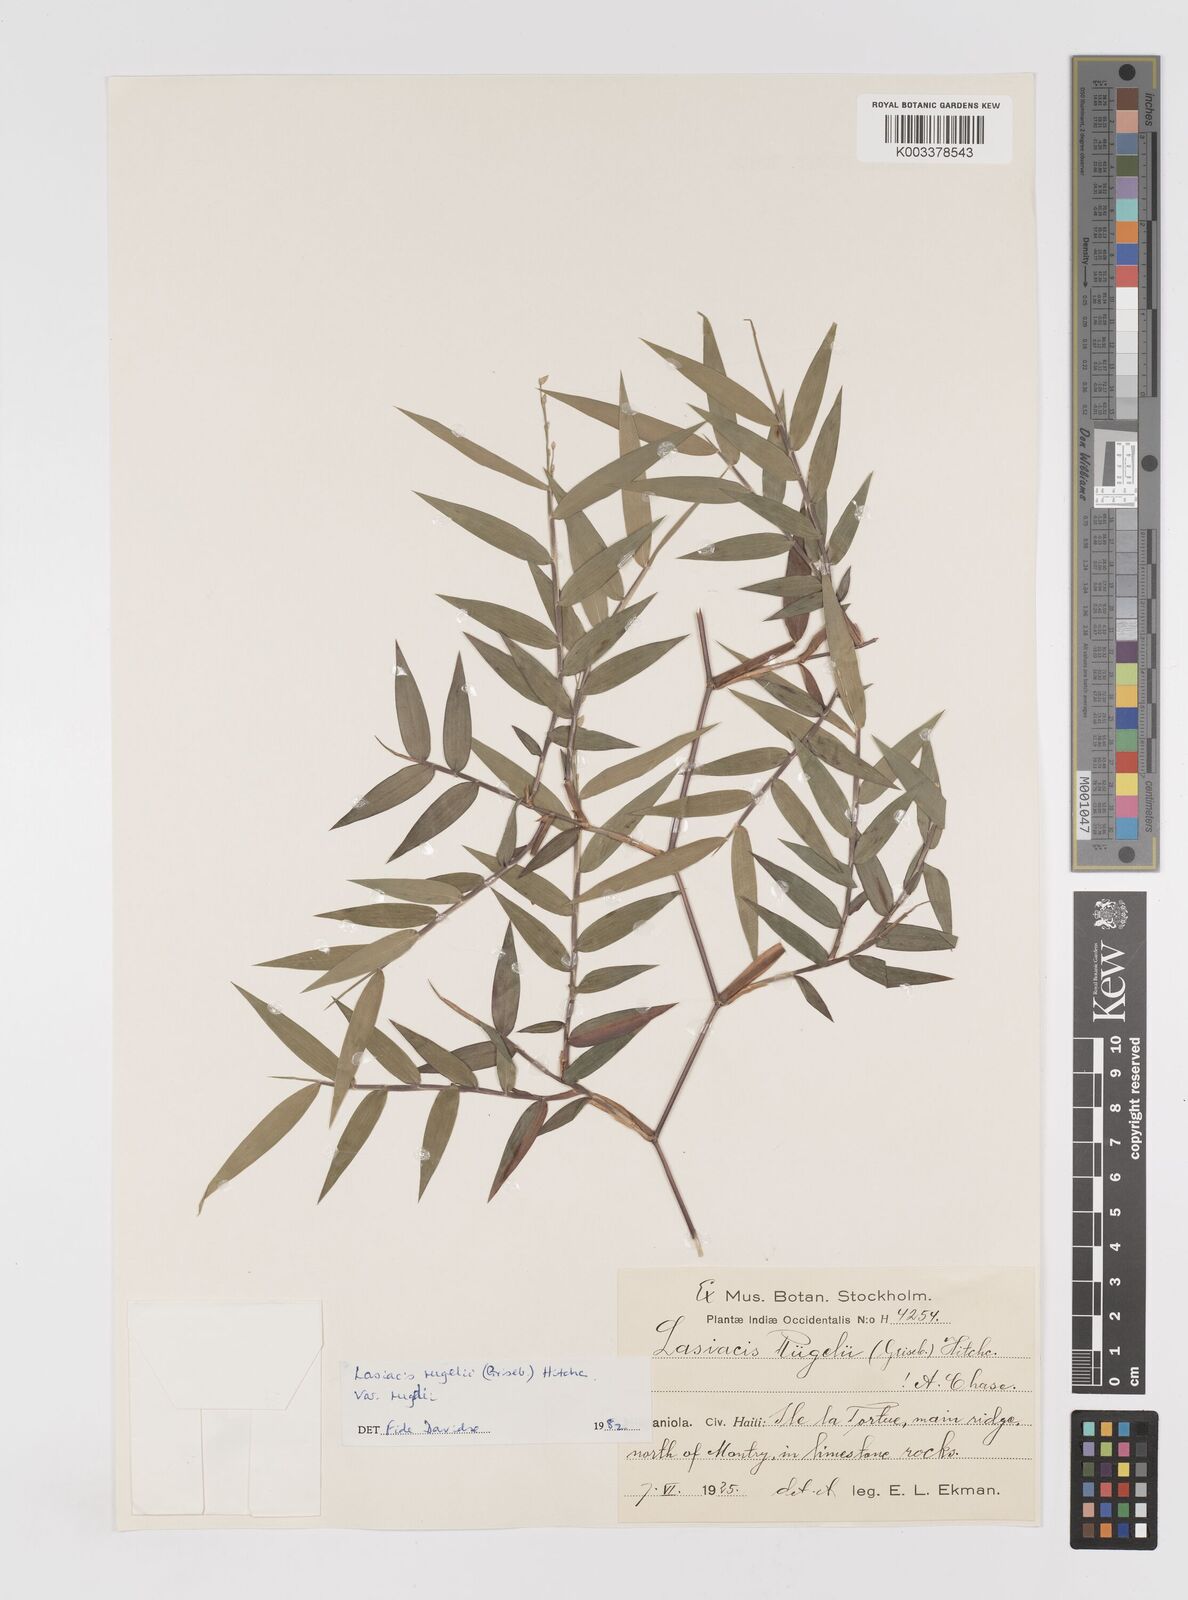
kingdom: Plantae
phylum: Tracheophyta
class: Liliopsida
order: Poales
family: Poaceae
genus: Lasiacis
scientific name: Lasiacis rugelii
